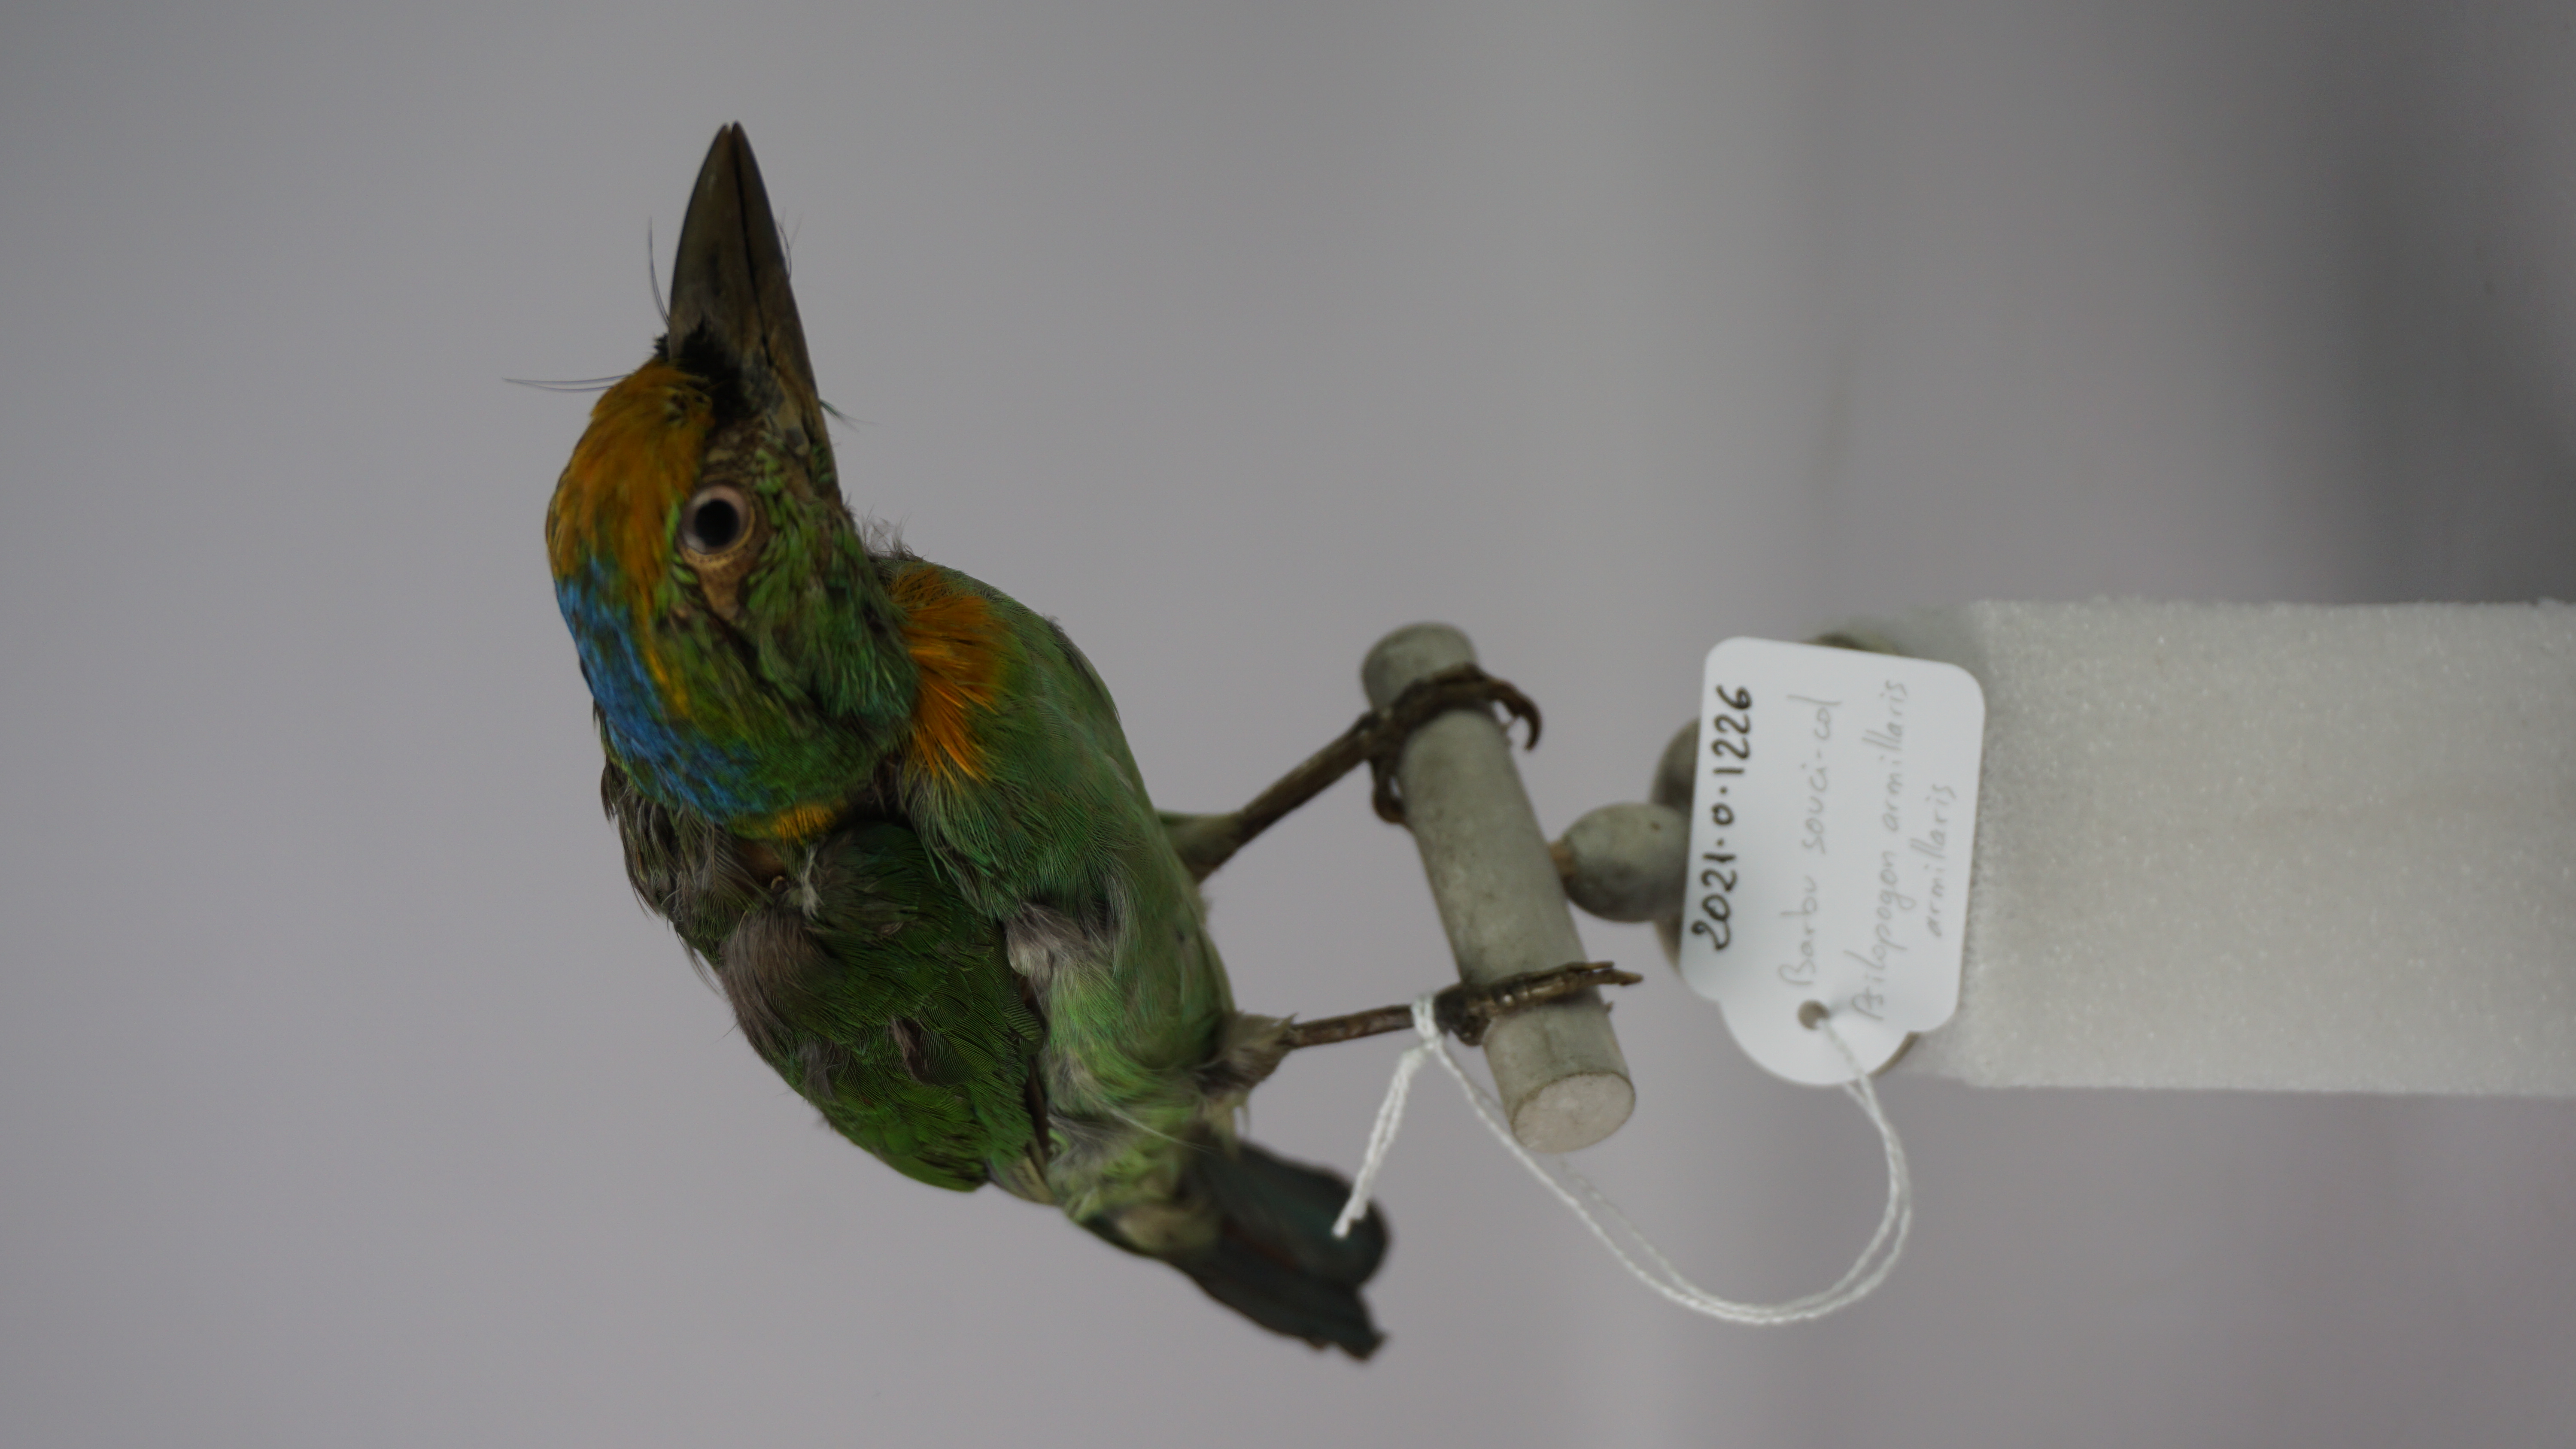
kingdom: Animalia
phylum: Chordata
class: Aves
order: Piciformes
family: Megalaimidae
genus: Psilopogon
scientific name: Psilopogon armillaris
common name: Flame-fronted barbet
